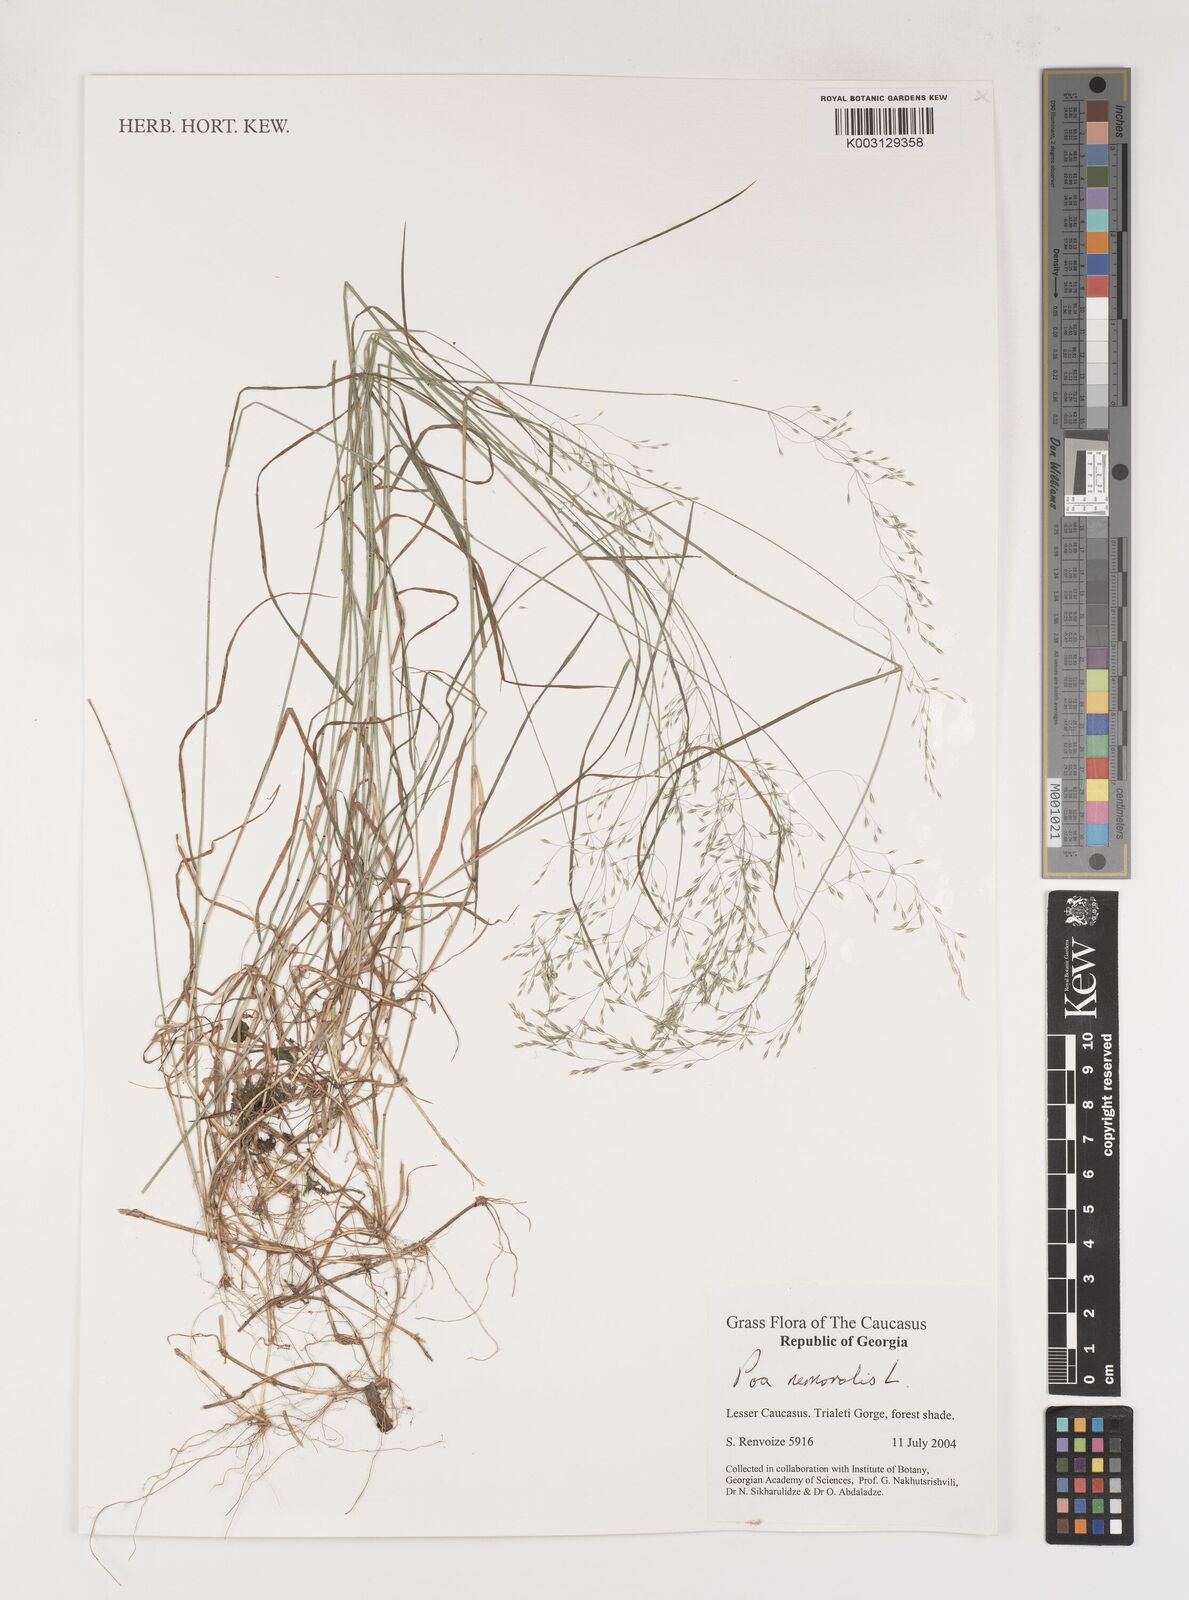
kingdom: Plantae
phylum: Tracheophyta
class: Liliopsida
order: Poales
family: Poaceae
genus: Poa
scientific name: Poa nemoralis
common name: Wood bluegrass
